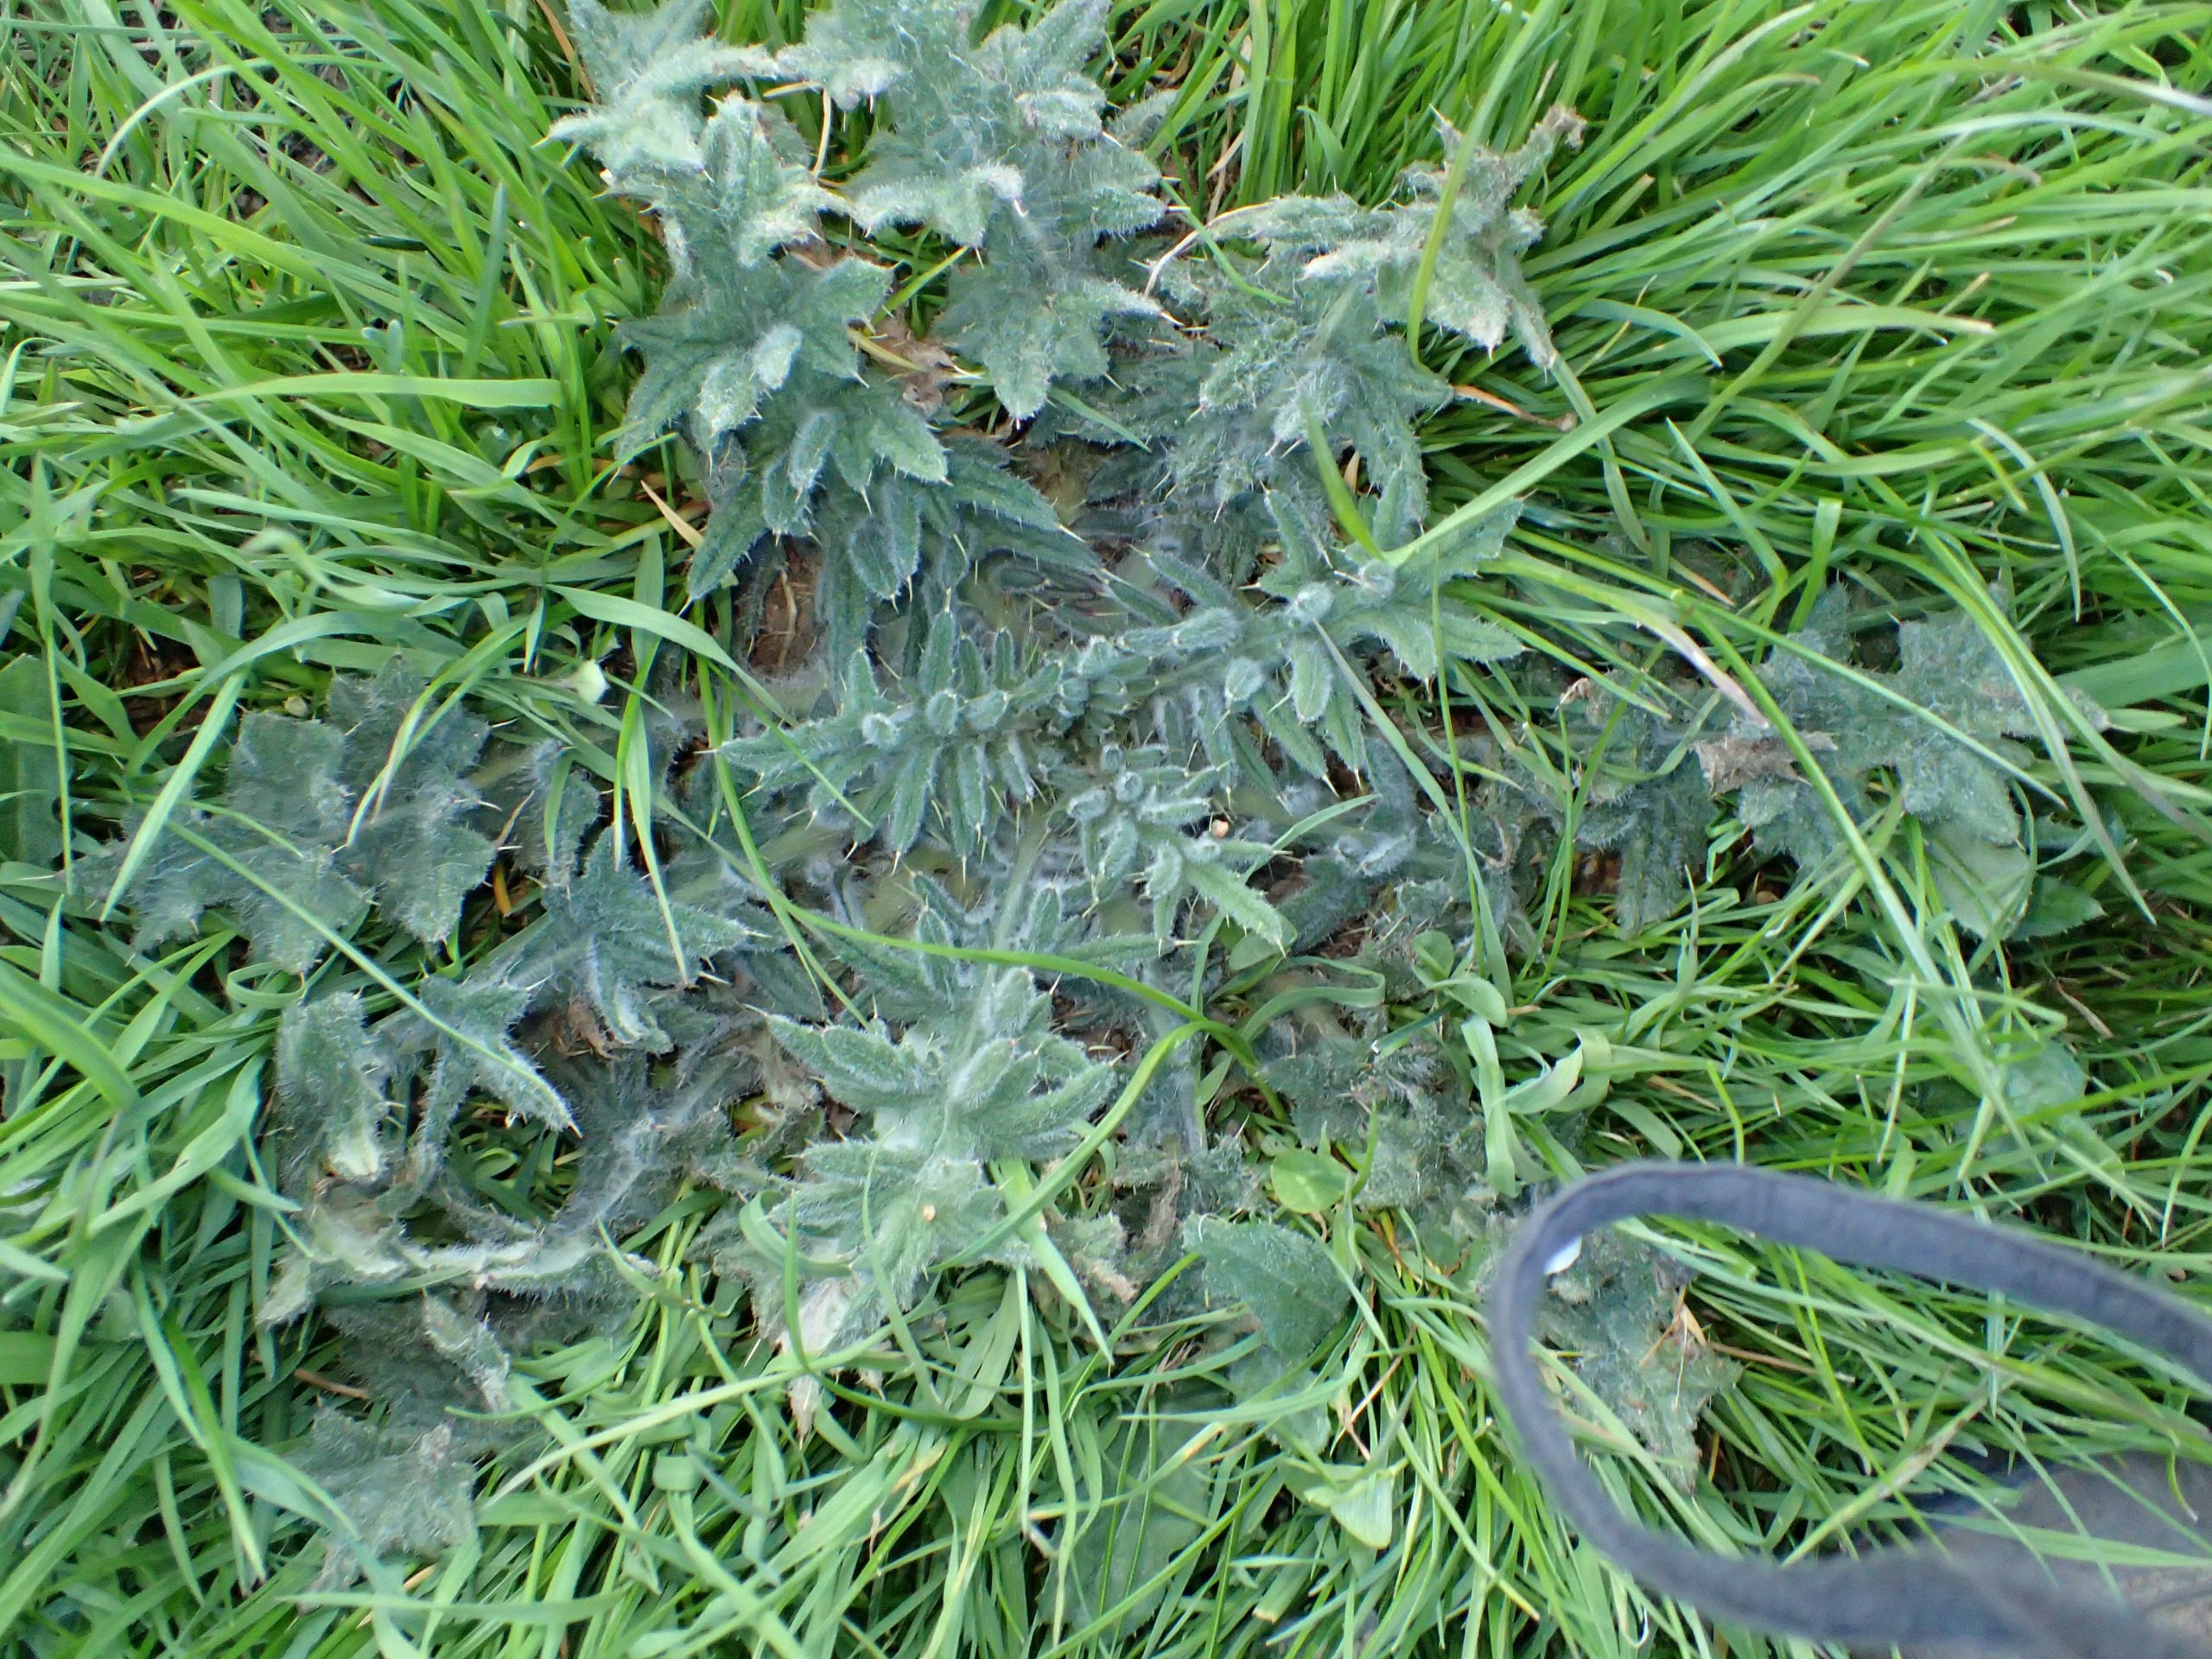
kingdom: Plantae
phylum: Tracheophyta
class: Magnoliopsida
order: Asterales
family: Asteraceae
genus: Cirsium
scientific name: Cirsium vulgare
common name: Horse-tidsel
